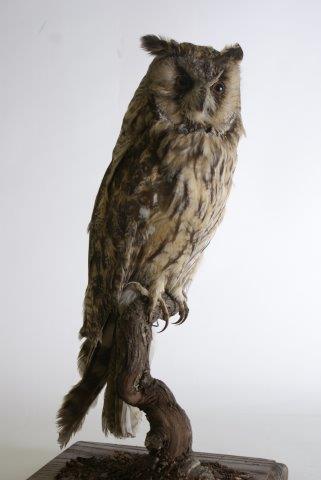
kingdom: Animalia
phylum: Chordata
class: Aves
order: Strigiformes
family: Strigidae
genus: Asio
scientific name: Asio otus
